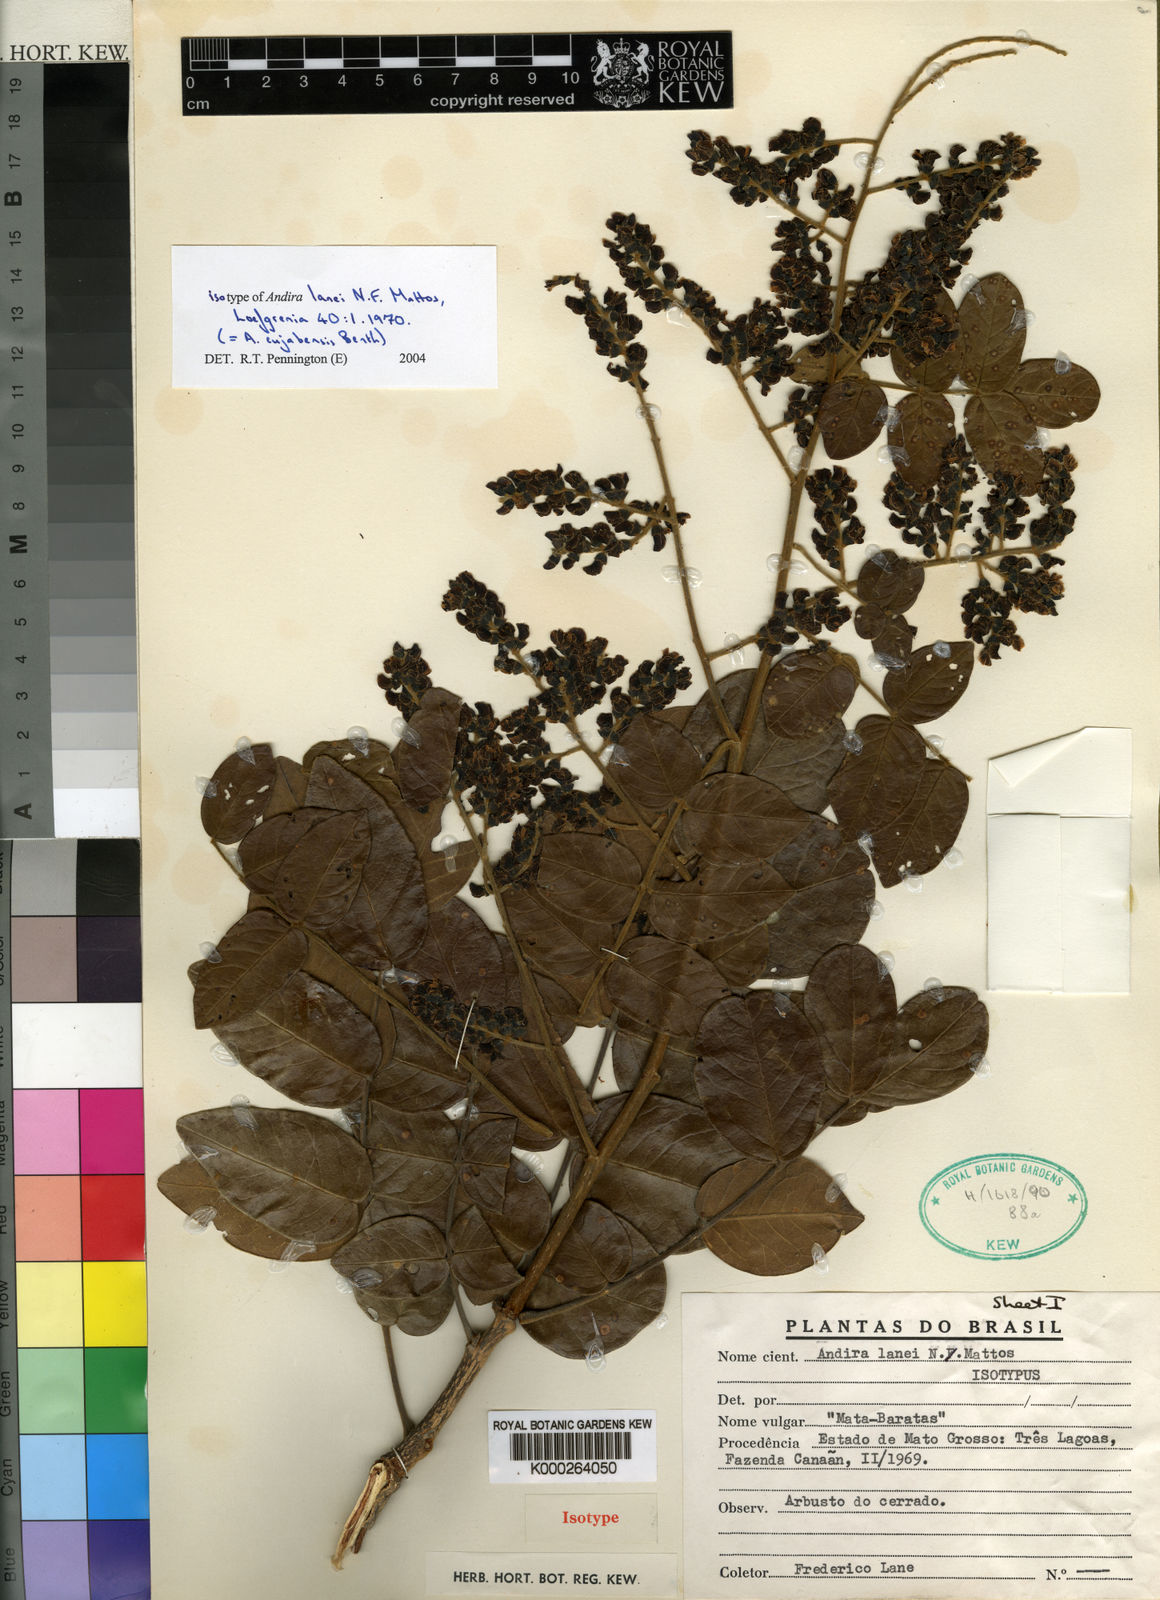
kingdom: Plantae
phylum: Tracheophyta
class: Magnoliopsida
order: Fabales
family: Fabaceae
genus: Andira
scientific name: Andira cujabensis
